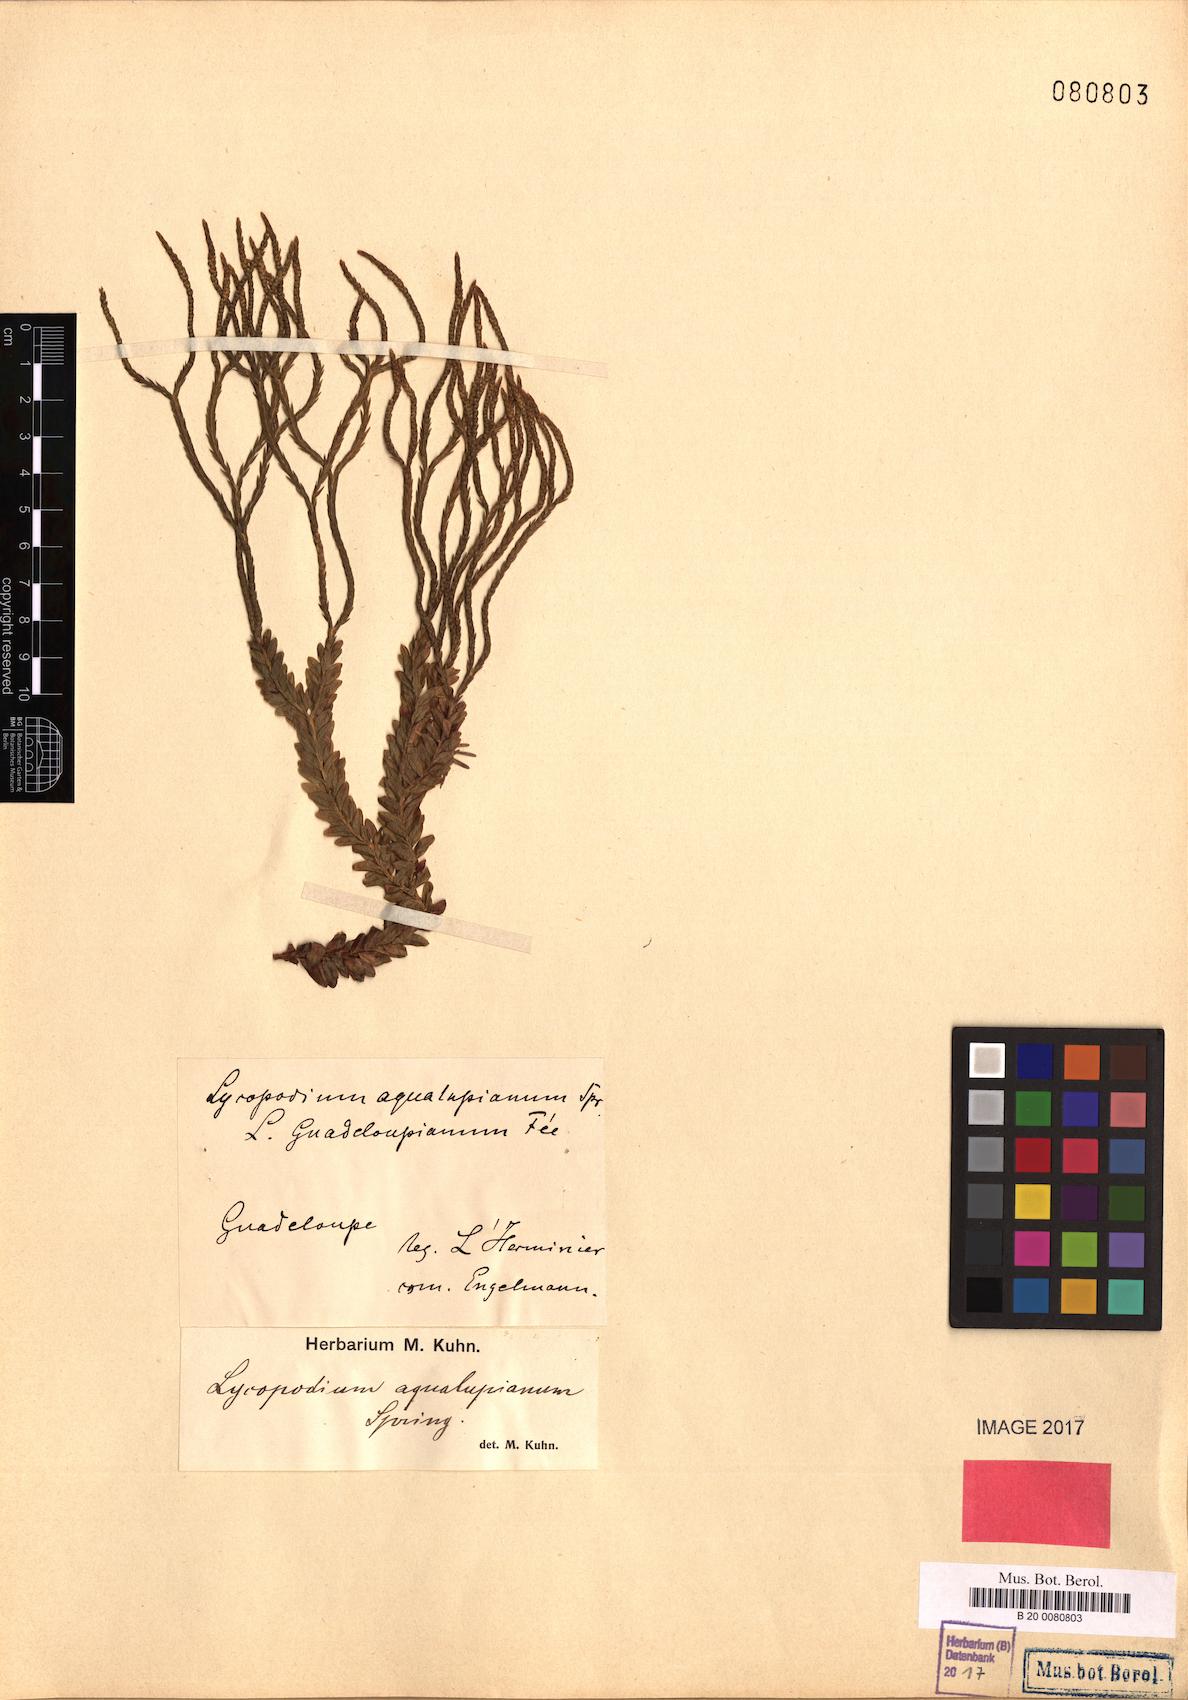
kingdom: Plantae
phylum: Tracheophyta
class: Lycopodiopsida
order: Lycopodiales
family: Lycopodiaceae
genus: Phlegmariurus
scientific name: Phlegmariurus aqualupianus
